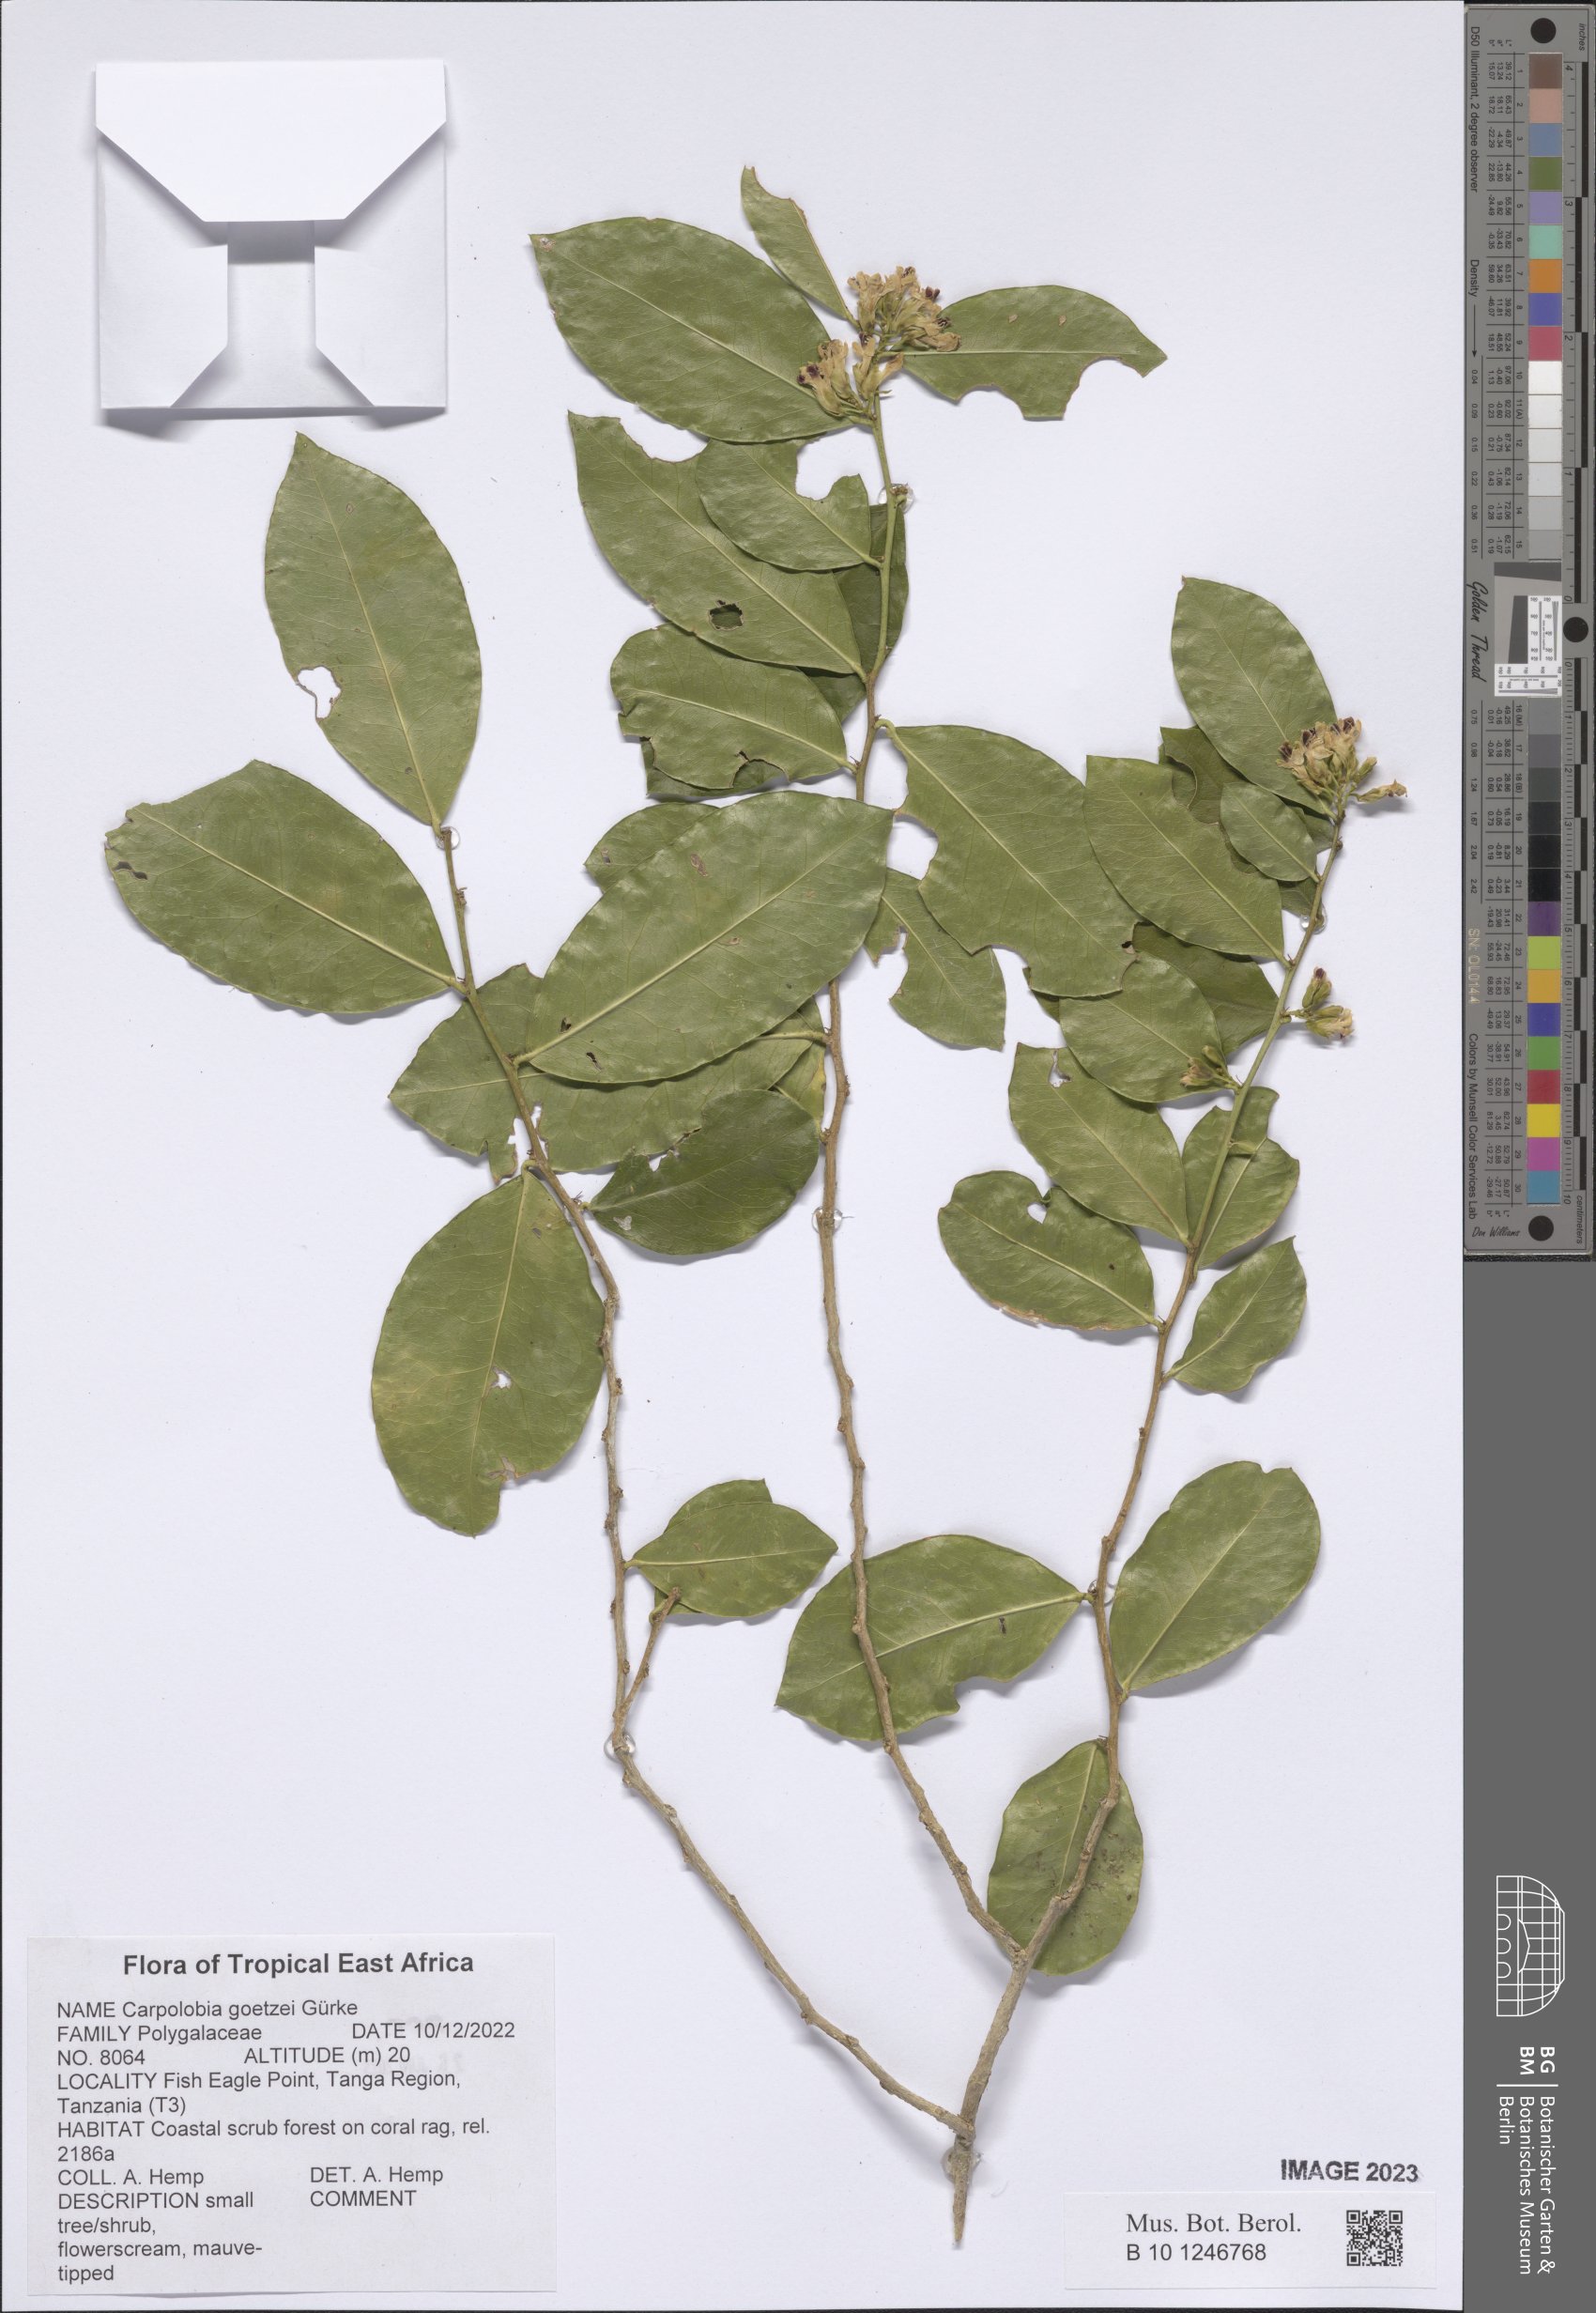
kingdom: Plantae
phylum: Tracheophyta
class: Magnoliopsida
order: Fabales
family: Polygalaceae
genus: Carpolobia
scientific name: Carpolobia goetzei
